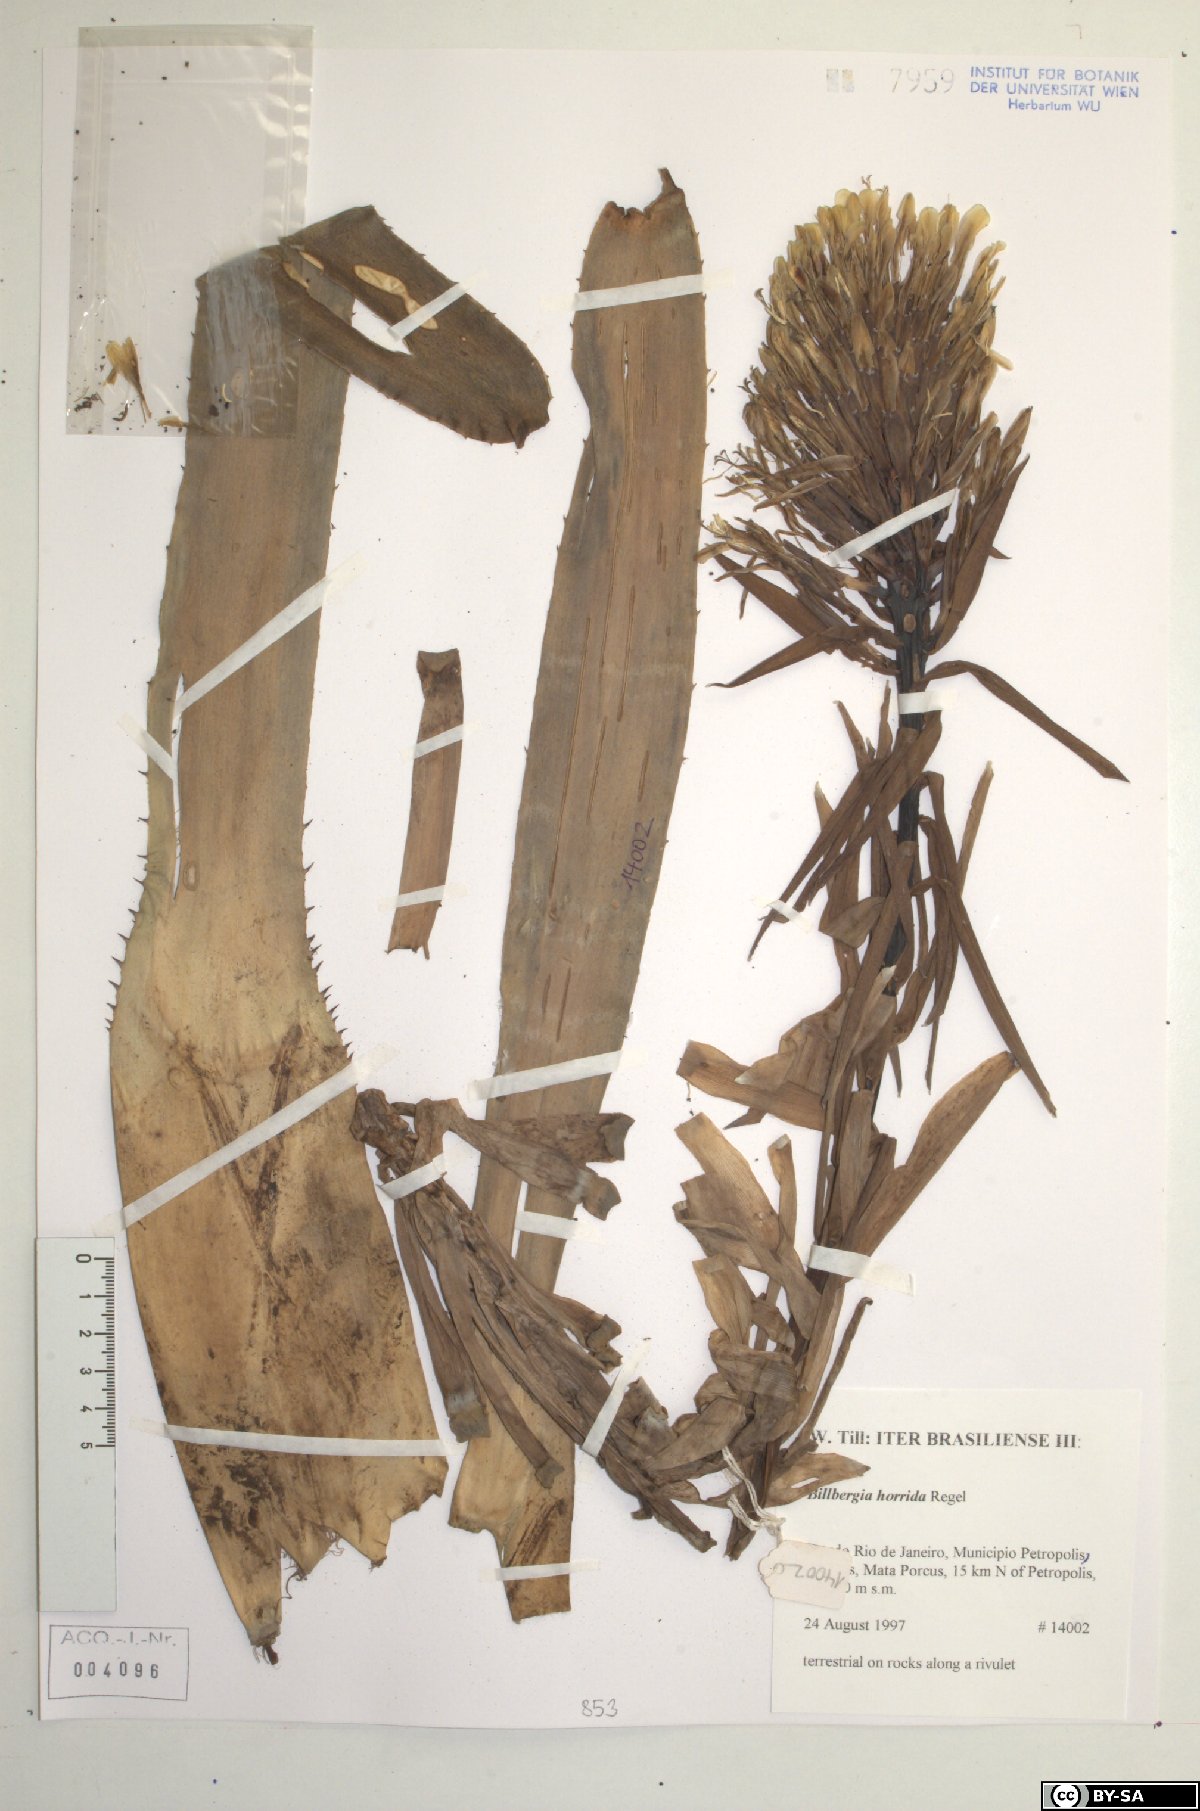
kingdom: Plantae
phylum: Tracheophyta
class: Liliopsida
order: Poales
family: Bromeliaceae
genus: Billbergia
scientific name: Billbergia horrida
